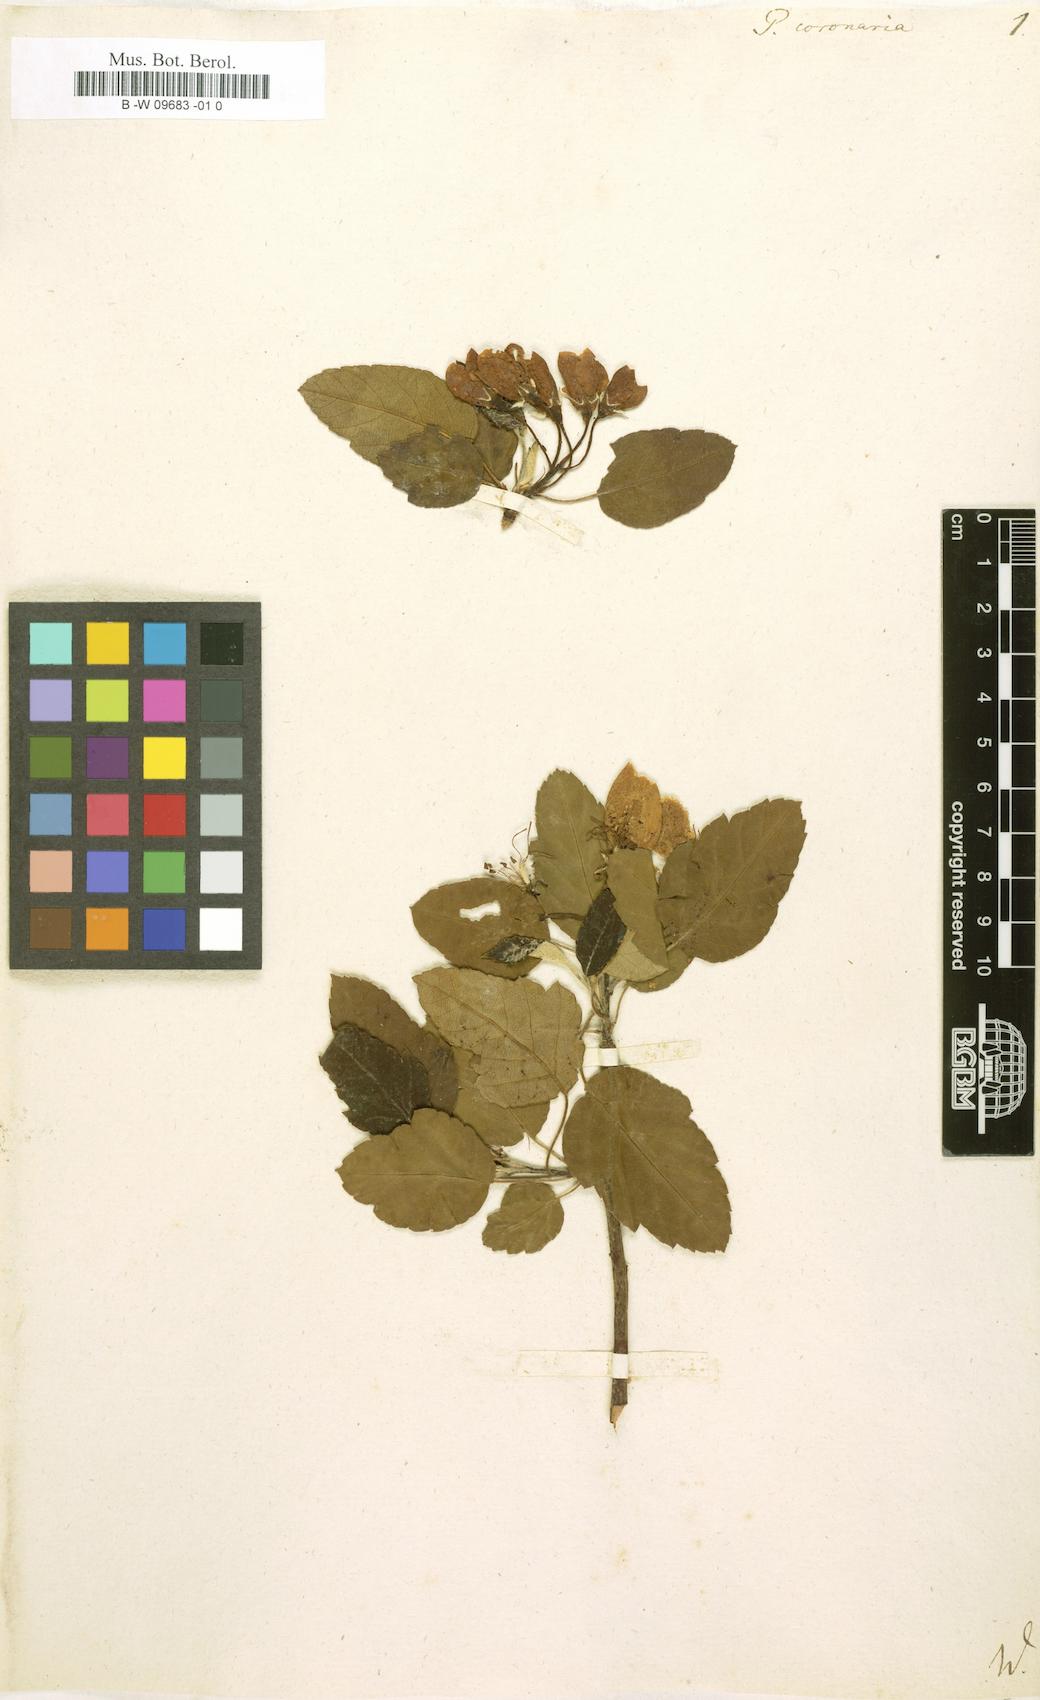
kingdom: Plantae
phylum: Tracheophyta
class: Magnoliopsida
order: Rosales
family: Rosaceae
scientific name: Rosaceae
